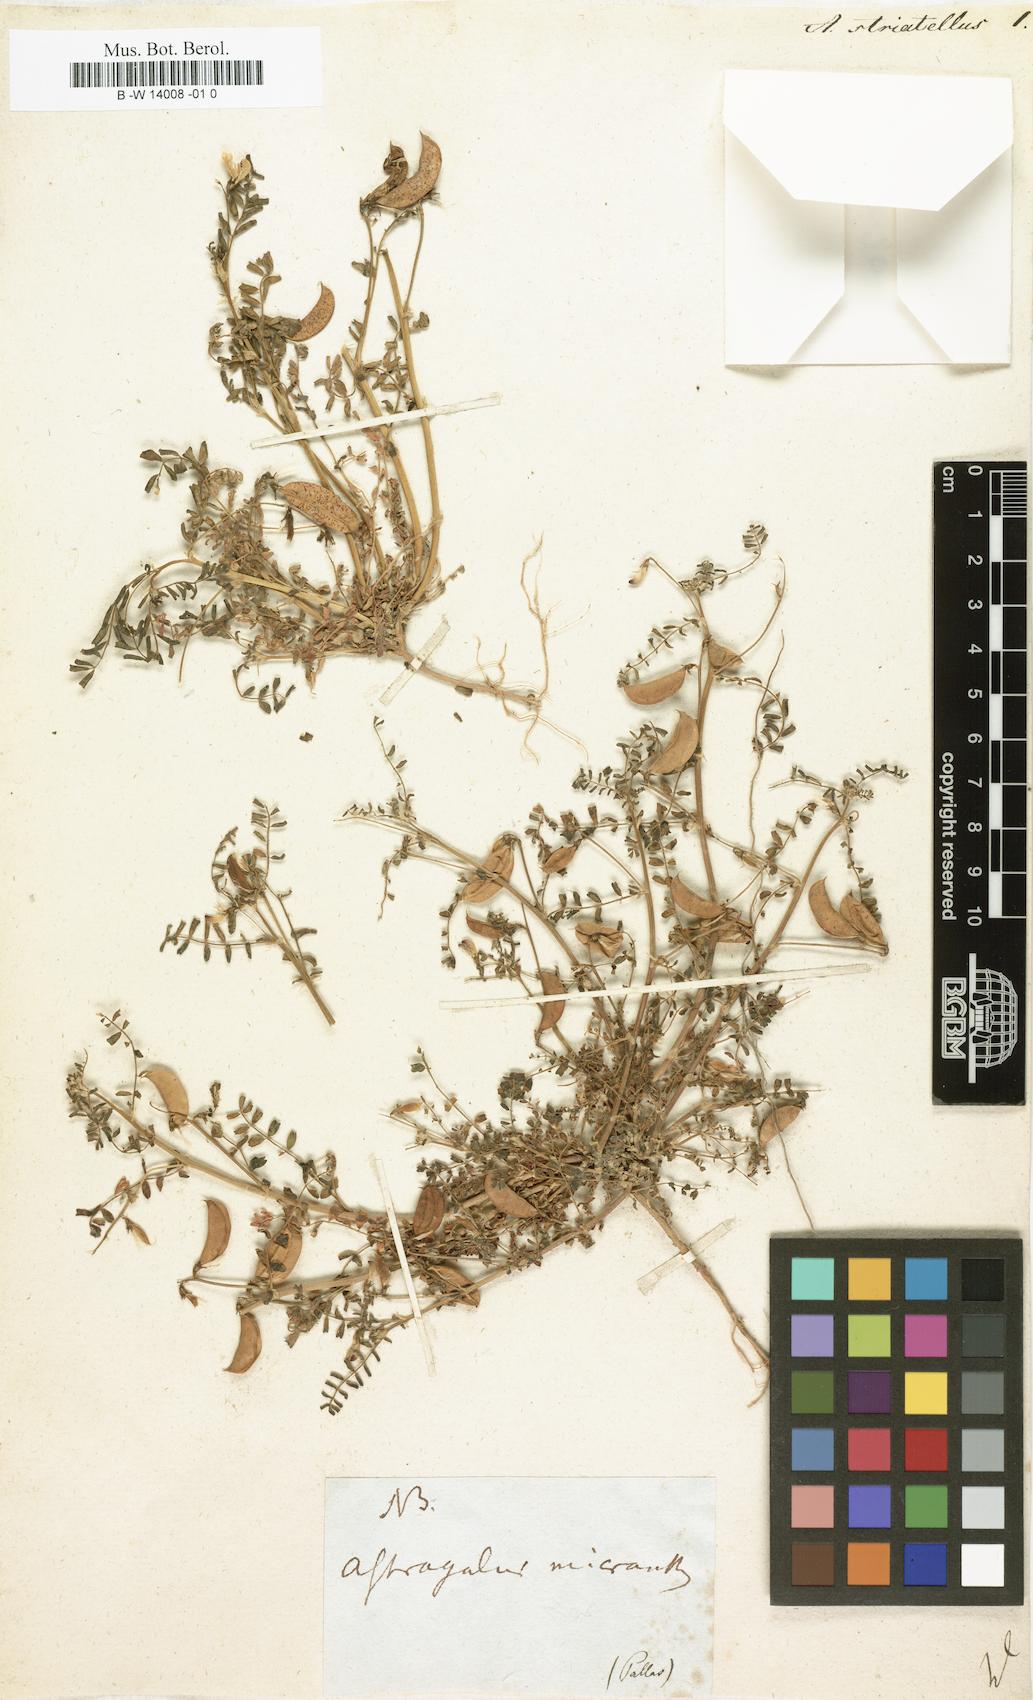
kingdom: Plantae
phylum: Tracheophyta
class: Magnoliopsida
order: Fabales
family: Fabaceae
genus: Astragalus
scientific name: Astragalus guttatus
